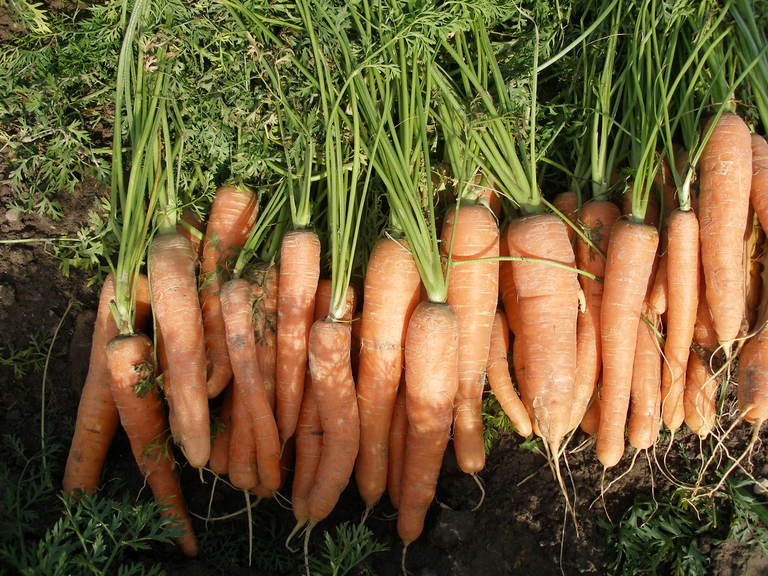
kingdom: Plantae
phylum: Tracheophyta
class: Magnoliopsida
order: Apiales
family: Apiaceae
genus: Daucus
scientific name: Daucus carota
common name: Wild carrot
